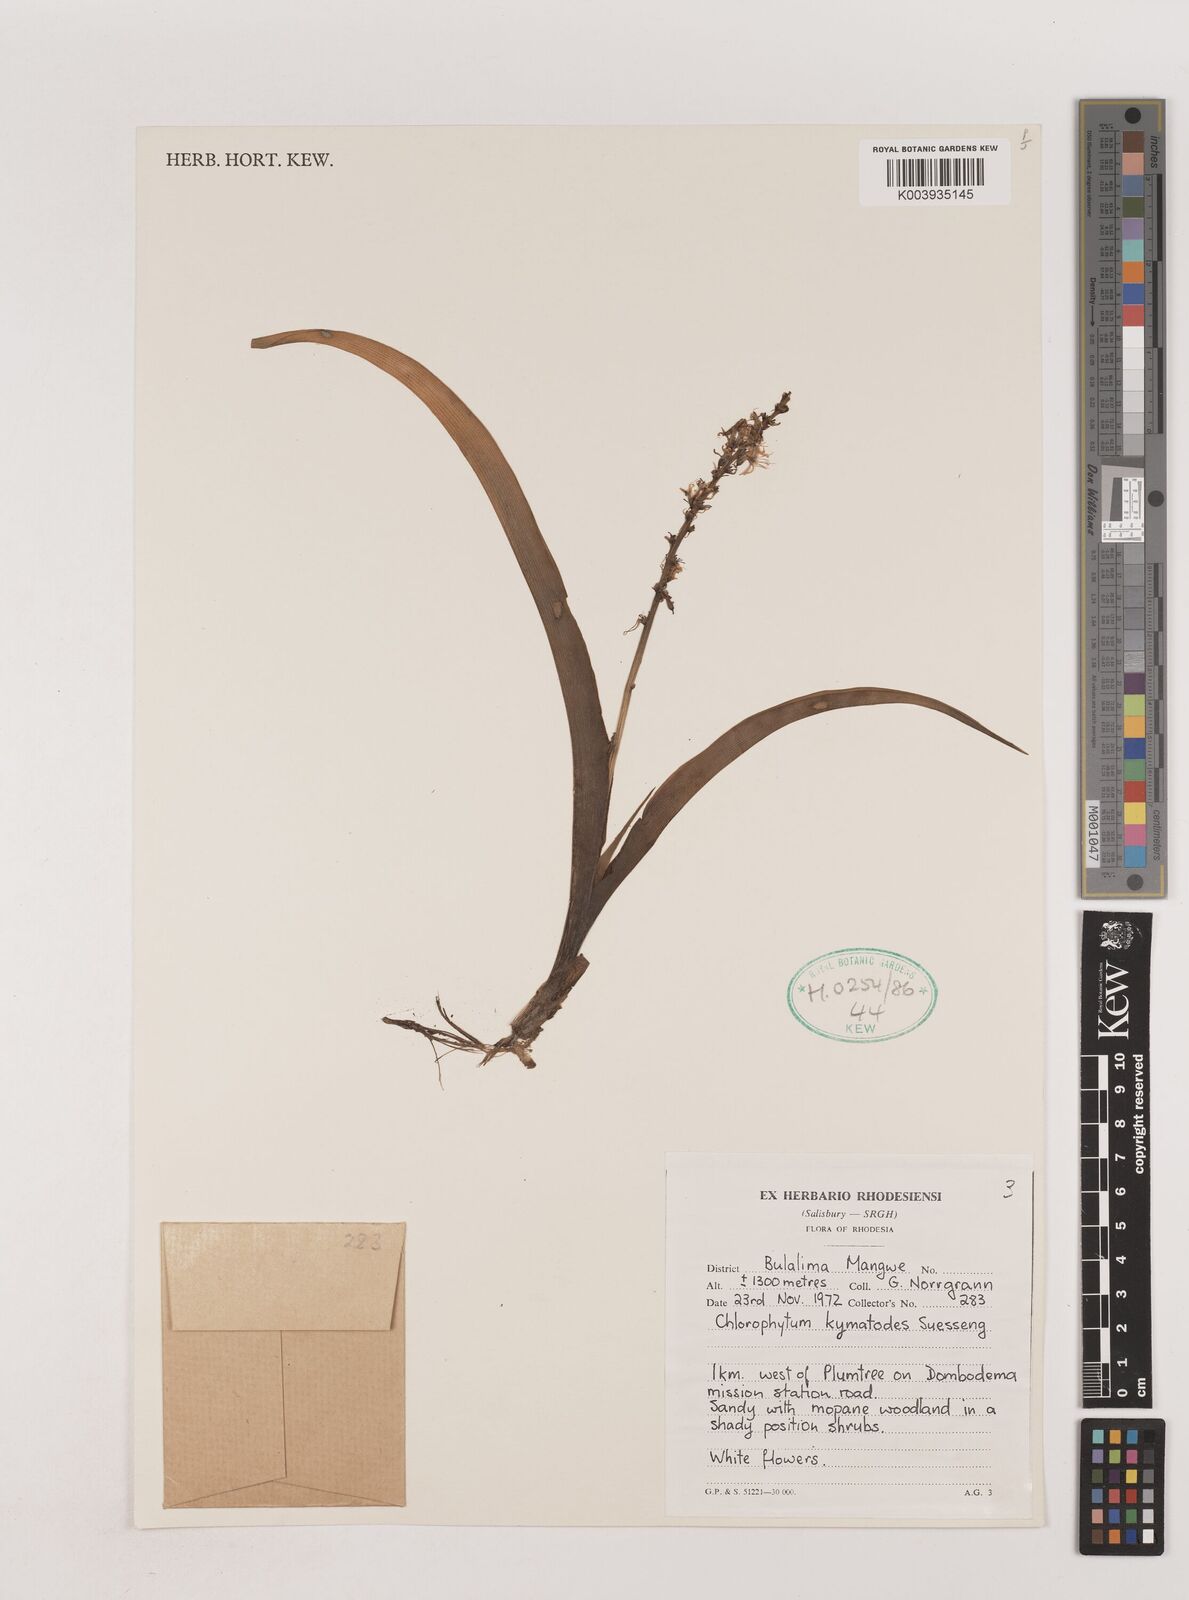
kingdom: Plantae
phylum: Tracheophyta
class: Liliopsida
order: Asparagales
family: Asparagaceae
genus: Chlorophytum
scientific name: Chlorophytum pauper
